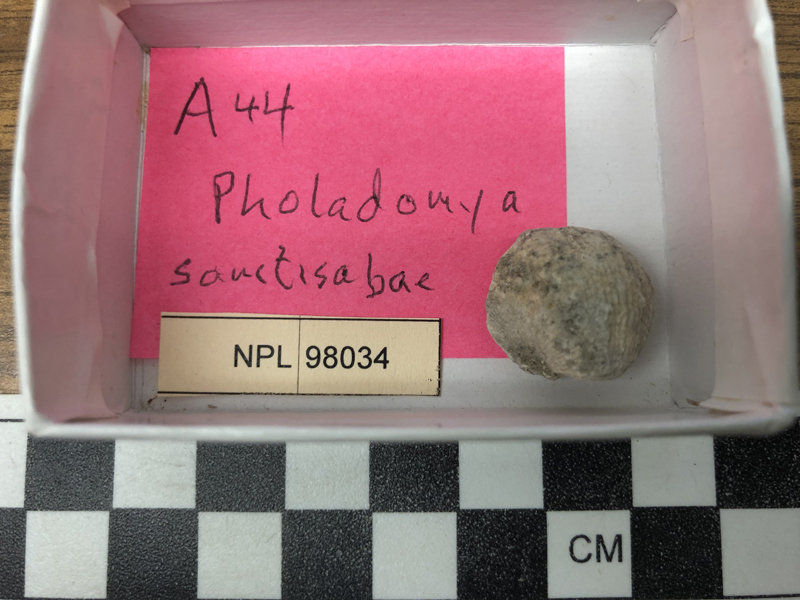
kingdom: Animalia
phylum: Mollusca
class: Bivalvia
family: Pholadomyidae
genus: Pholadomya
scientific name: Pholadomya
